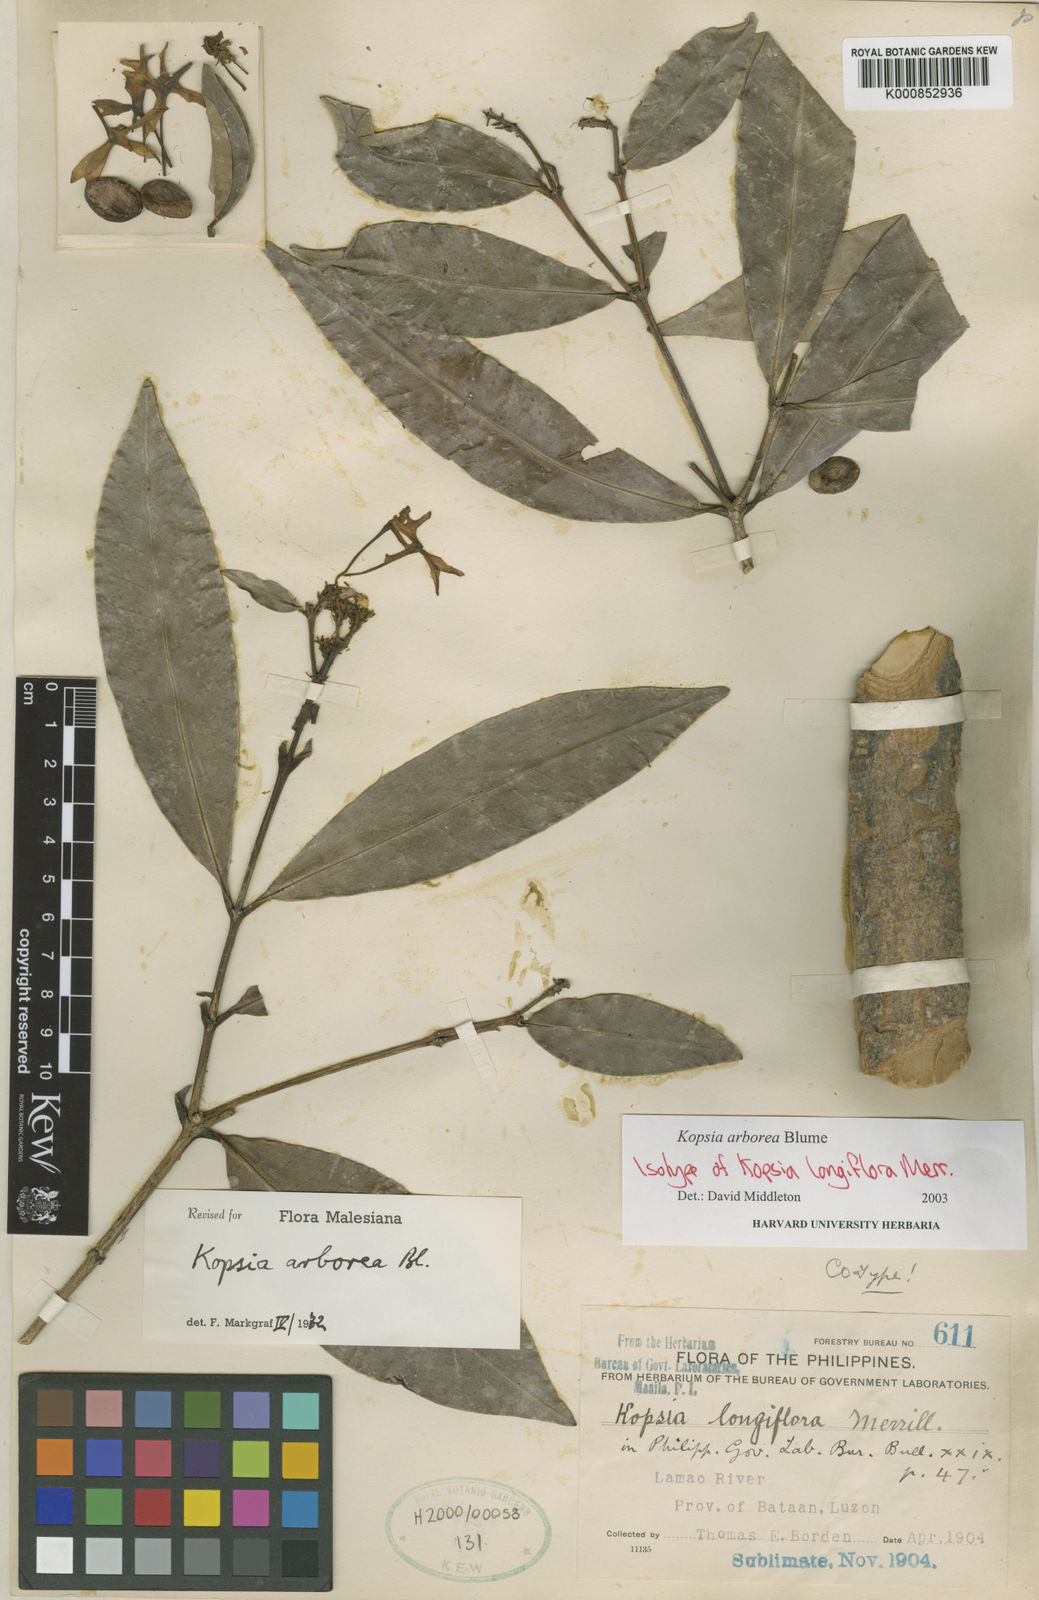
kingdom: Plantae
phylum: Tracheophyta
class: Magnoliopsida
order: Gentianales
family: Apocynaceae
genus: Kopsia
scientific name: Kopsia arborea
